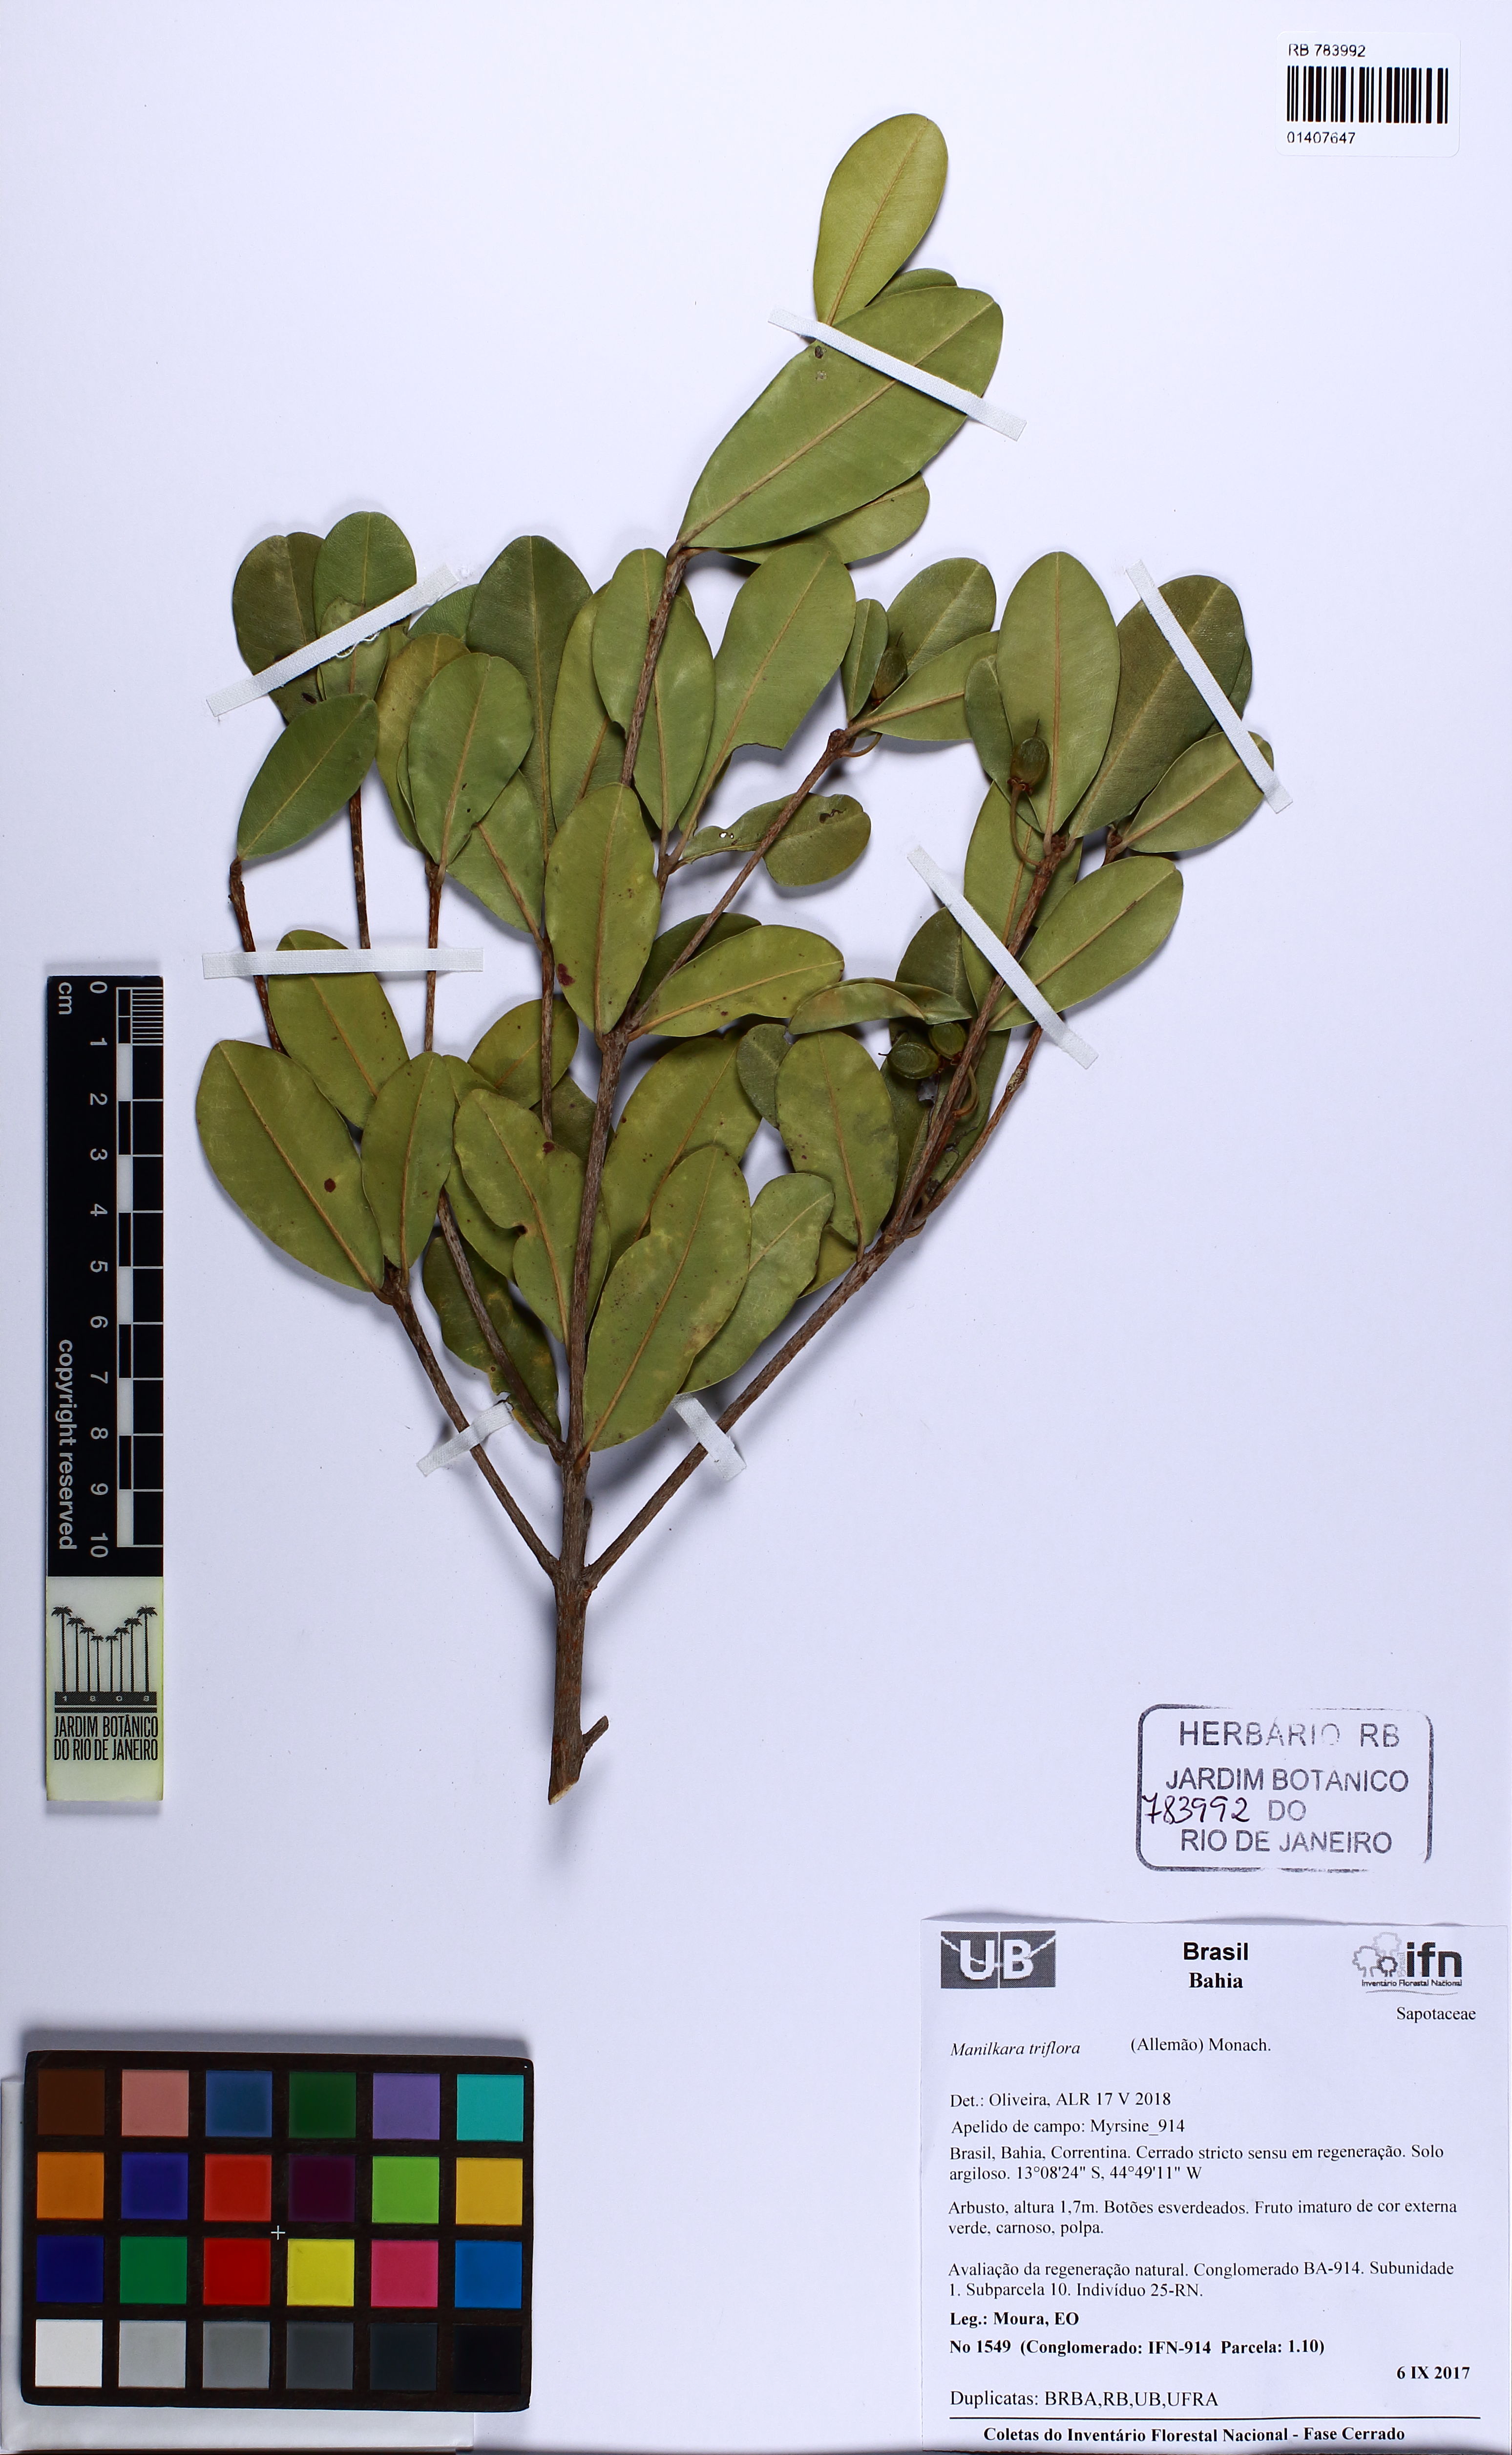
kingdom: Plantae
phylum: Tracheophyta
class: Magnoliopsida
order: Ericales
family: Sapotaceae
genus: Manilkara
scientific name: Manilkara triflora
